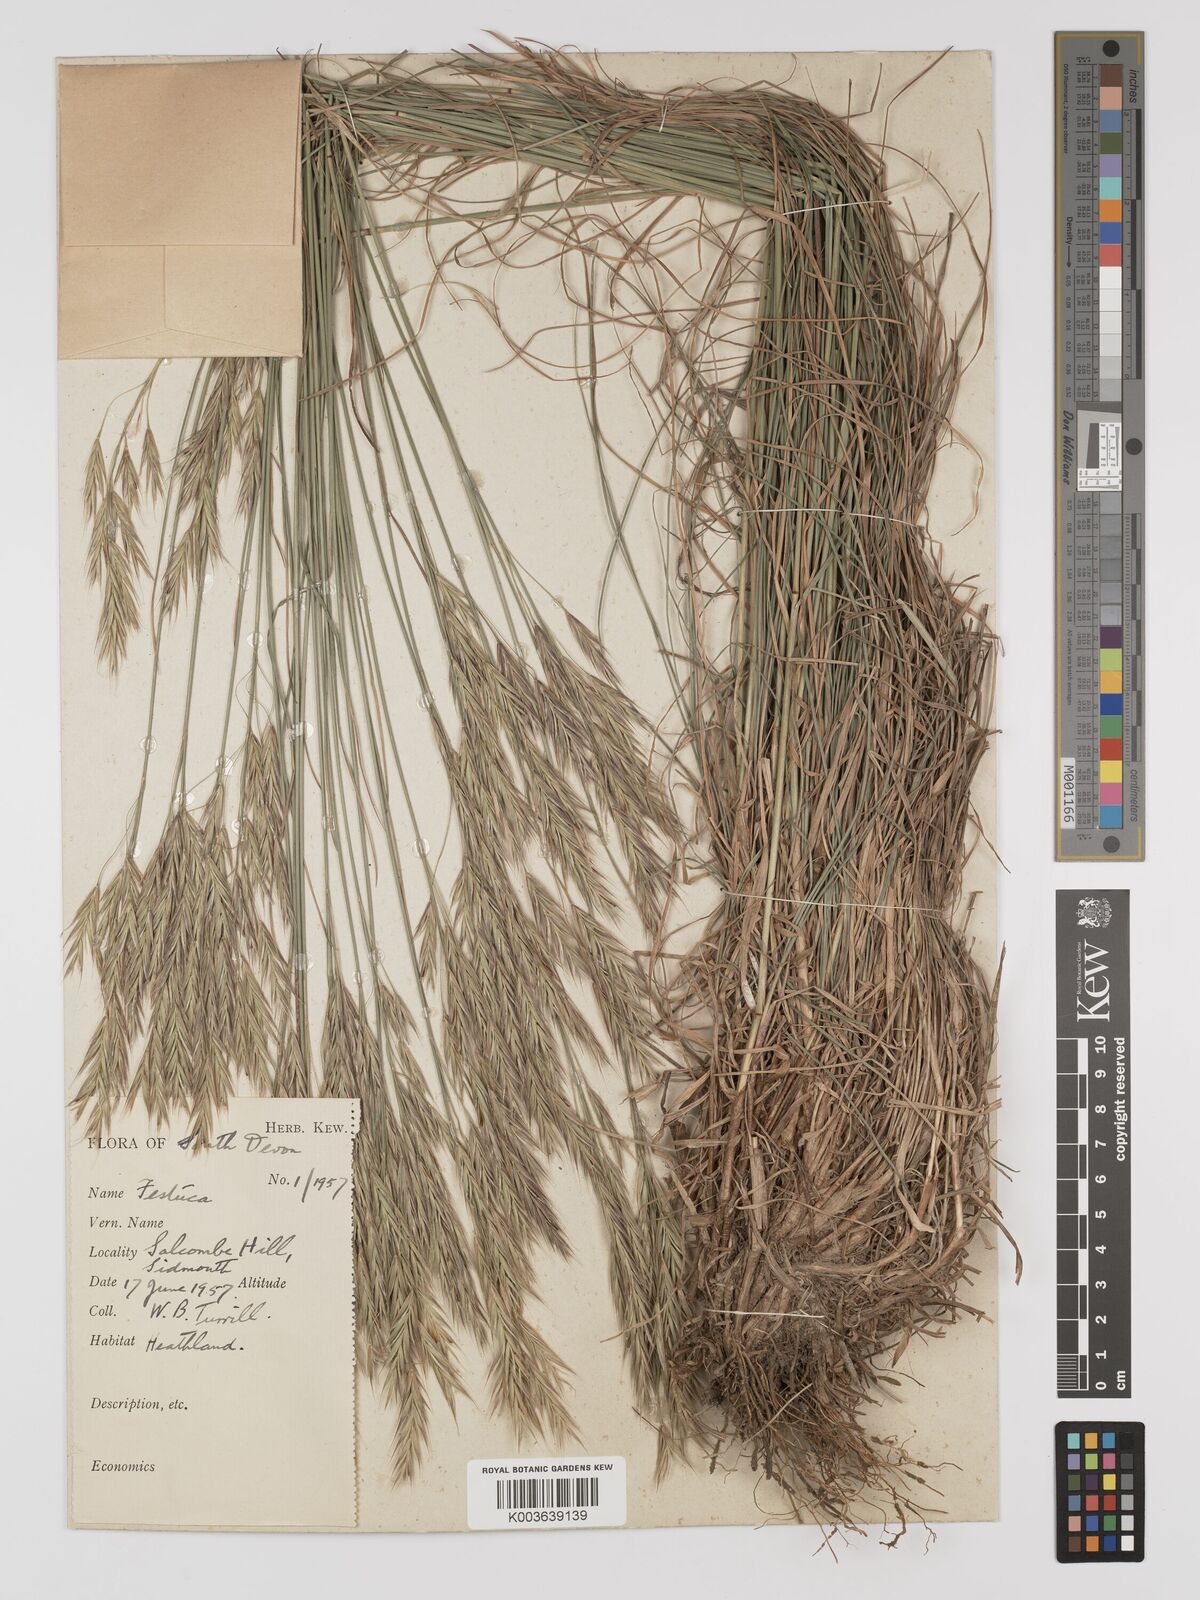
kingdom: Plantae
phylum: Tracheophyta
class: Liliopsida
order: Poales
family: Poaceae
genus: Bromus
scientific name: Bromus erectus
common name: Erect brome
